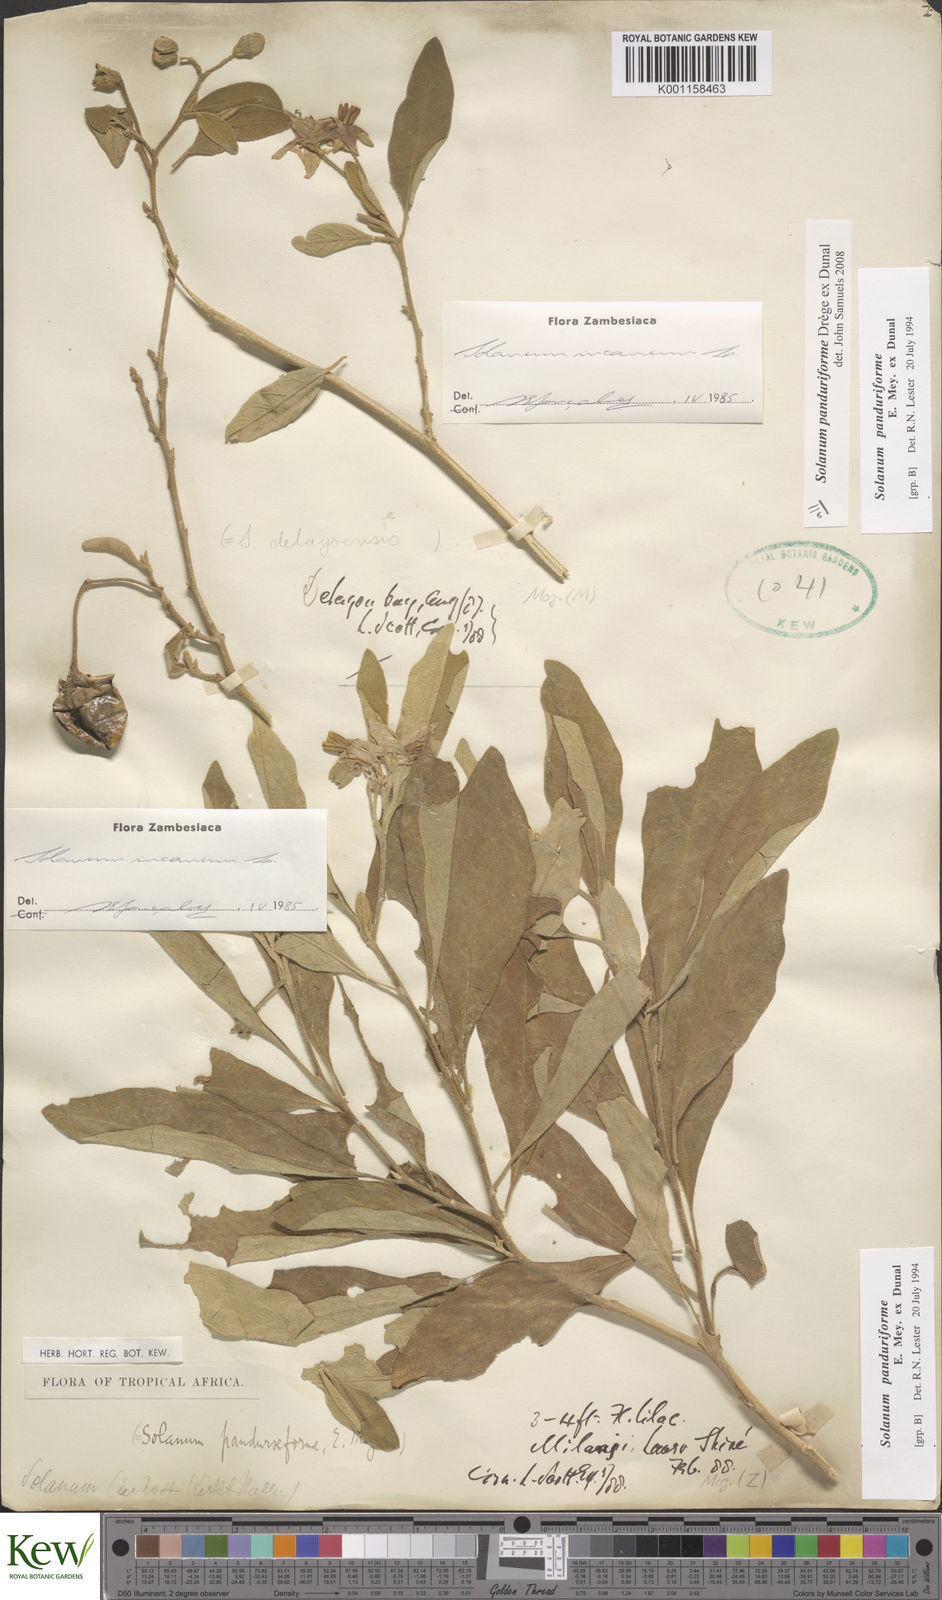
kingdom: Plantae
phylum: Tracheophyta
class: Magnoliopsida
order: Solanales
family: Solanaceae
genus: Solanum
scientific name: Solanum campylacanthum
